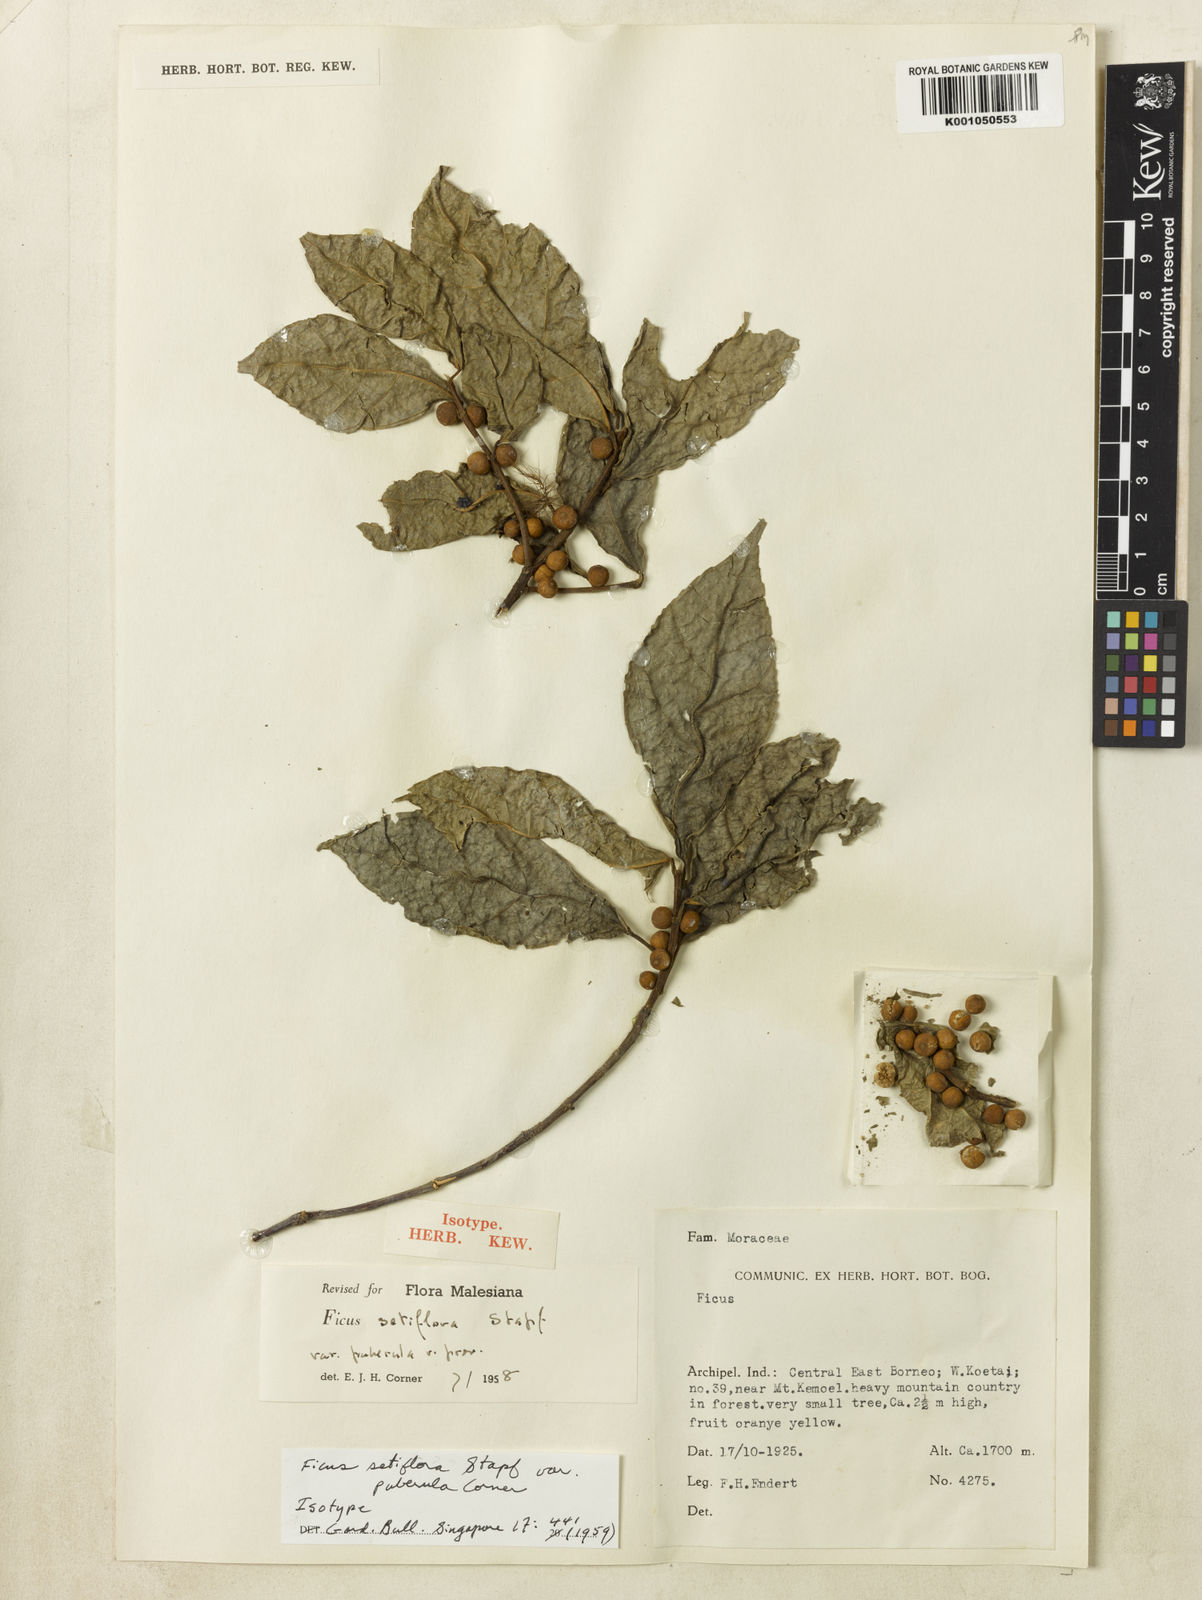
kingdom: Plantae
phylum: Tracheophyta
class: Magnoliopsida
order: Rosales
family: Moraceae
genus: Ficus
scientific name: Ficus setiflora
